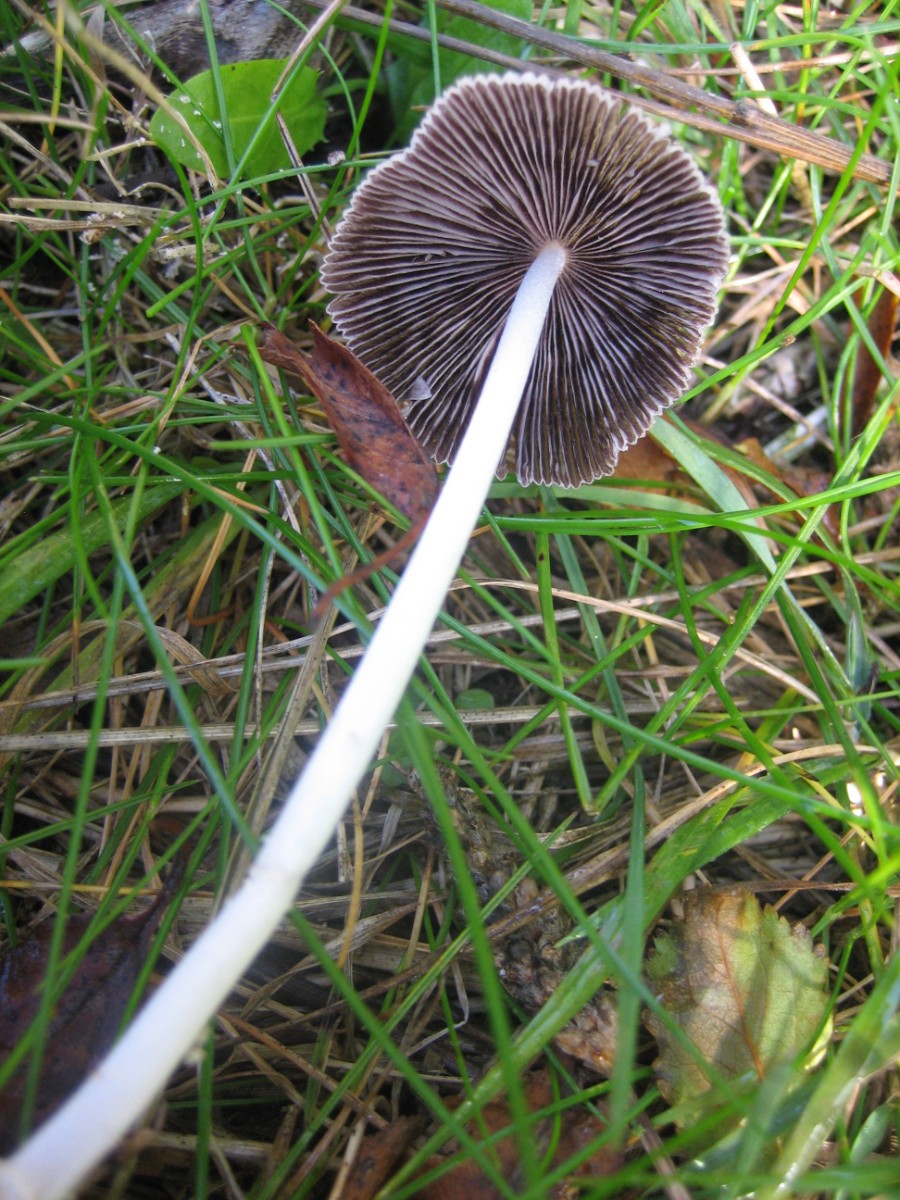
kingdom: Fungi
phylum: Basidiomycota
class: Agaricomycetes
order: Agaricales
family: Psathyrellaceae
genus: Coprinellus
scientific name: Coprinellus
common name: blækhat
